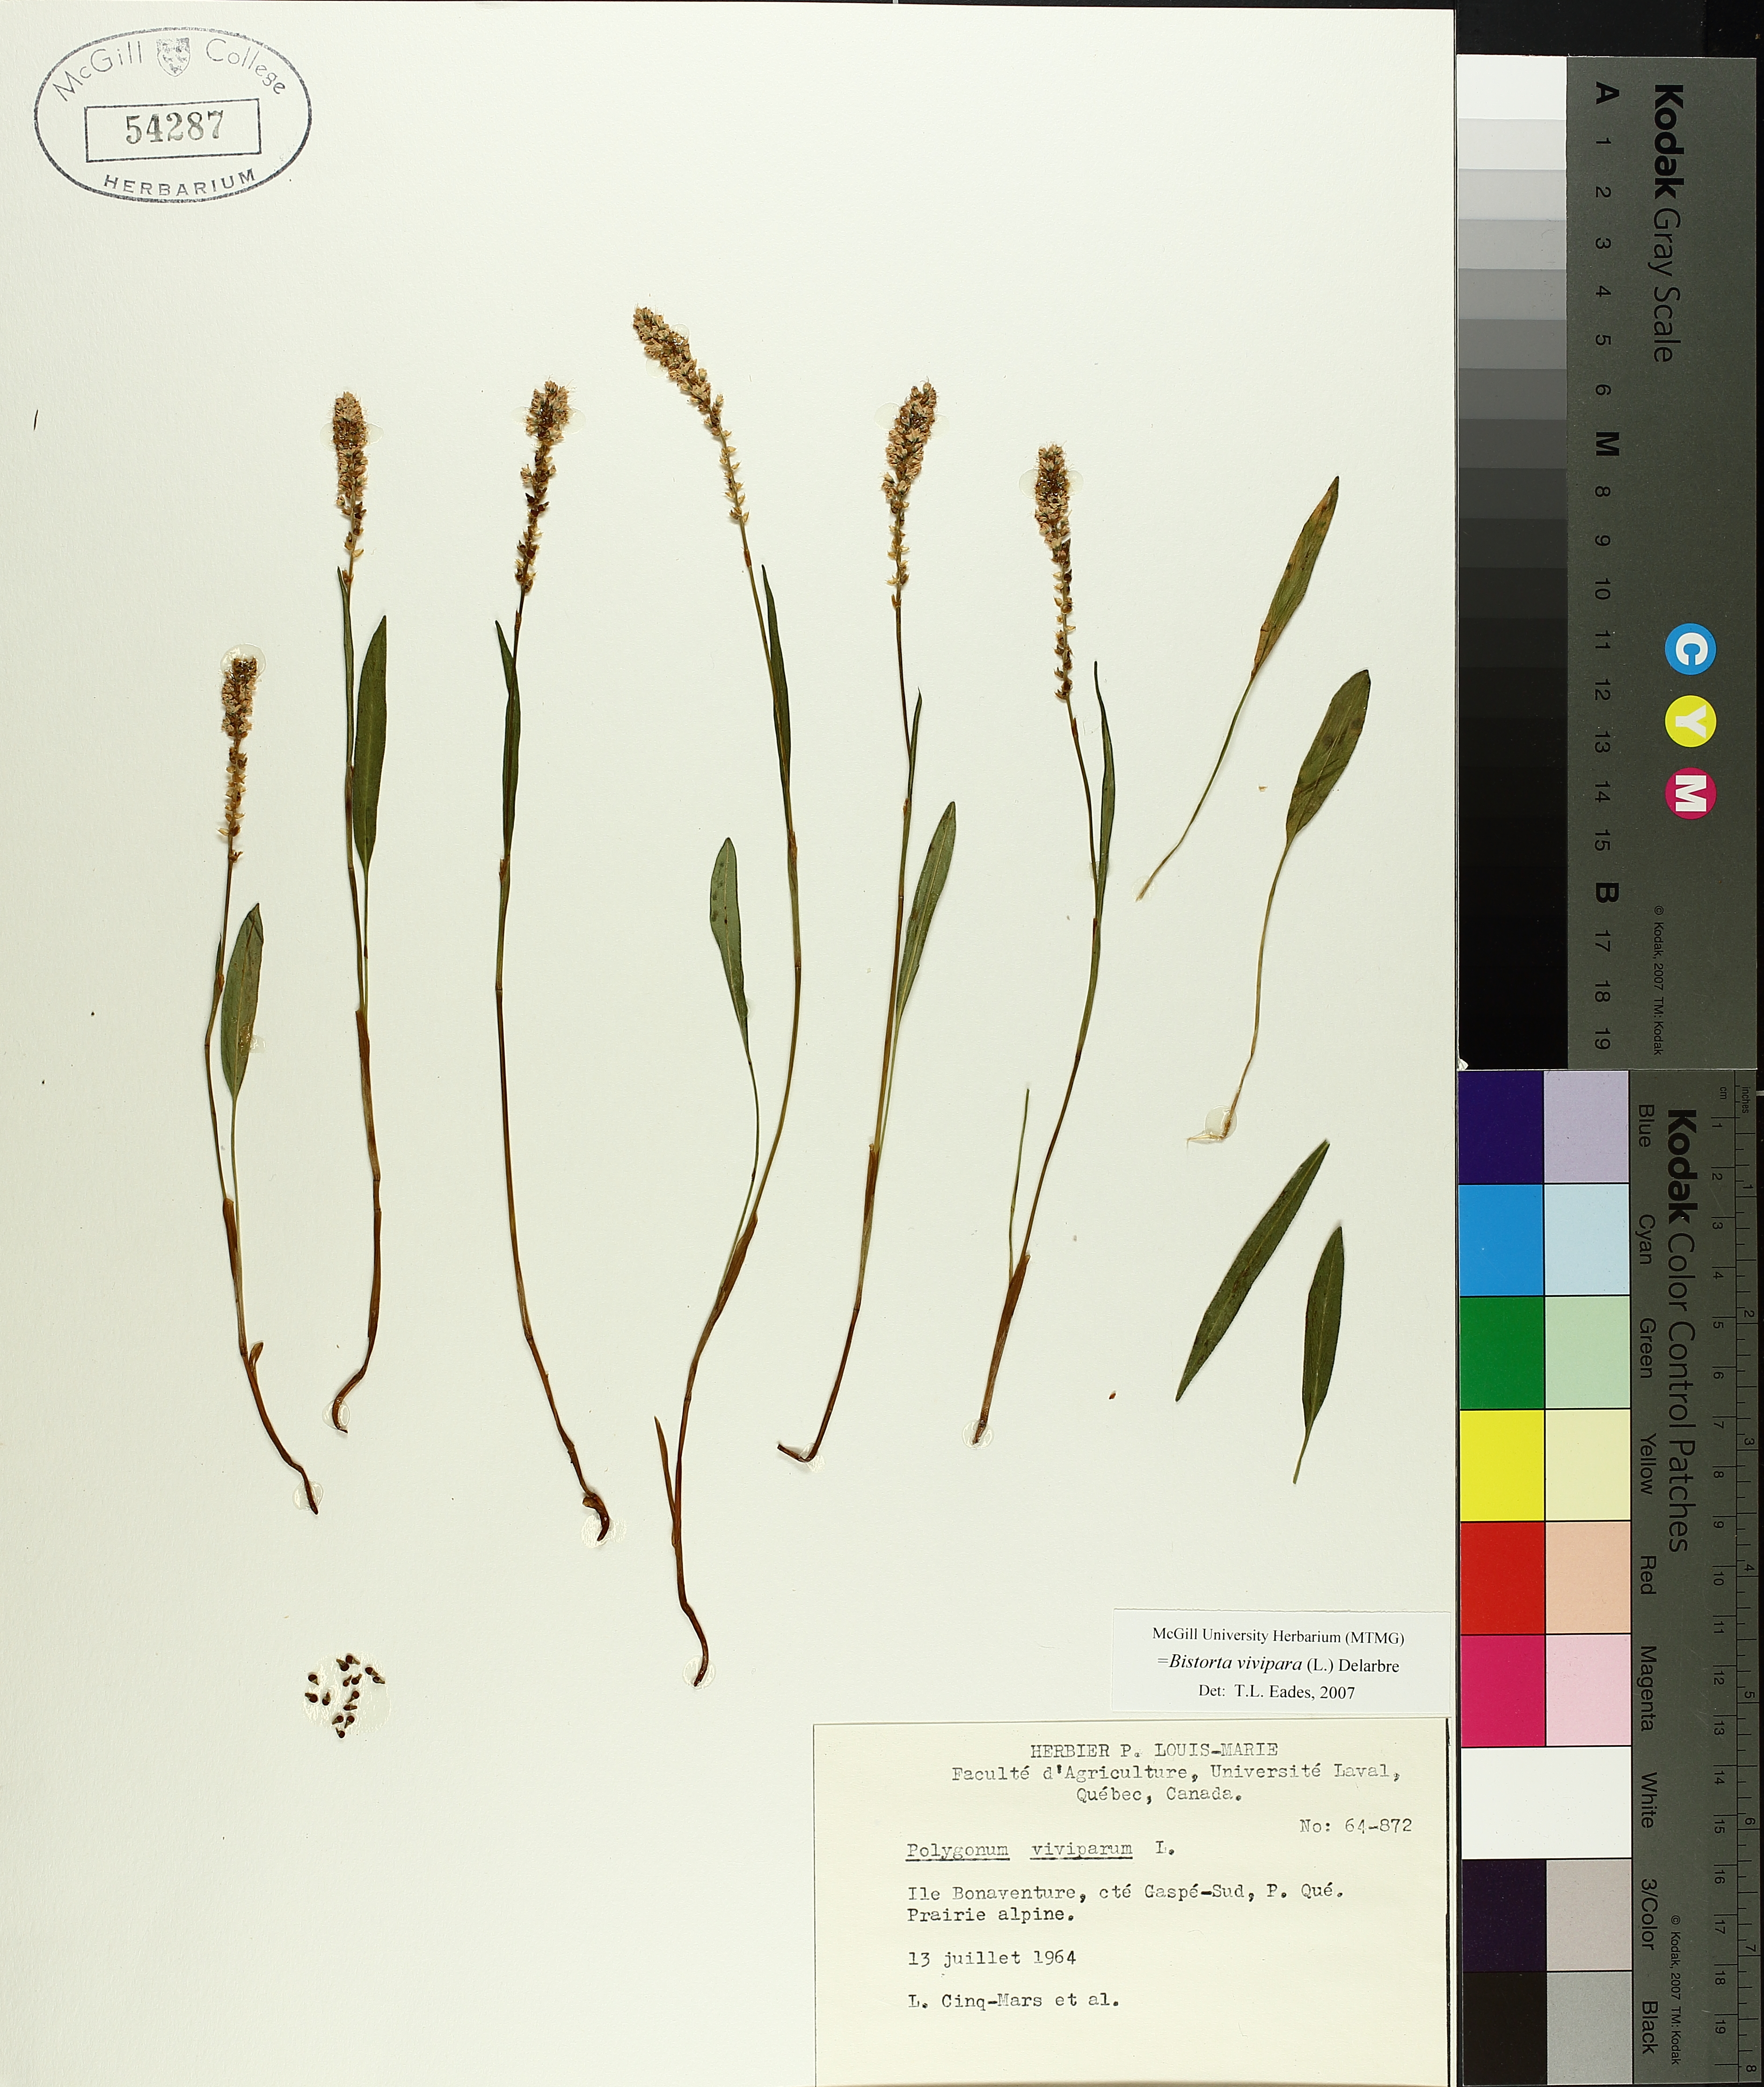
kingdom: Plantae
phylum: Tracheophyta
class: Magnoliopsida
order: Caryophyllales
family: Polygonaceae
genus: Bistorta
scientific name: Bistorta vivipara
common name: Alpine bistort
